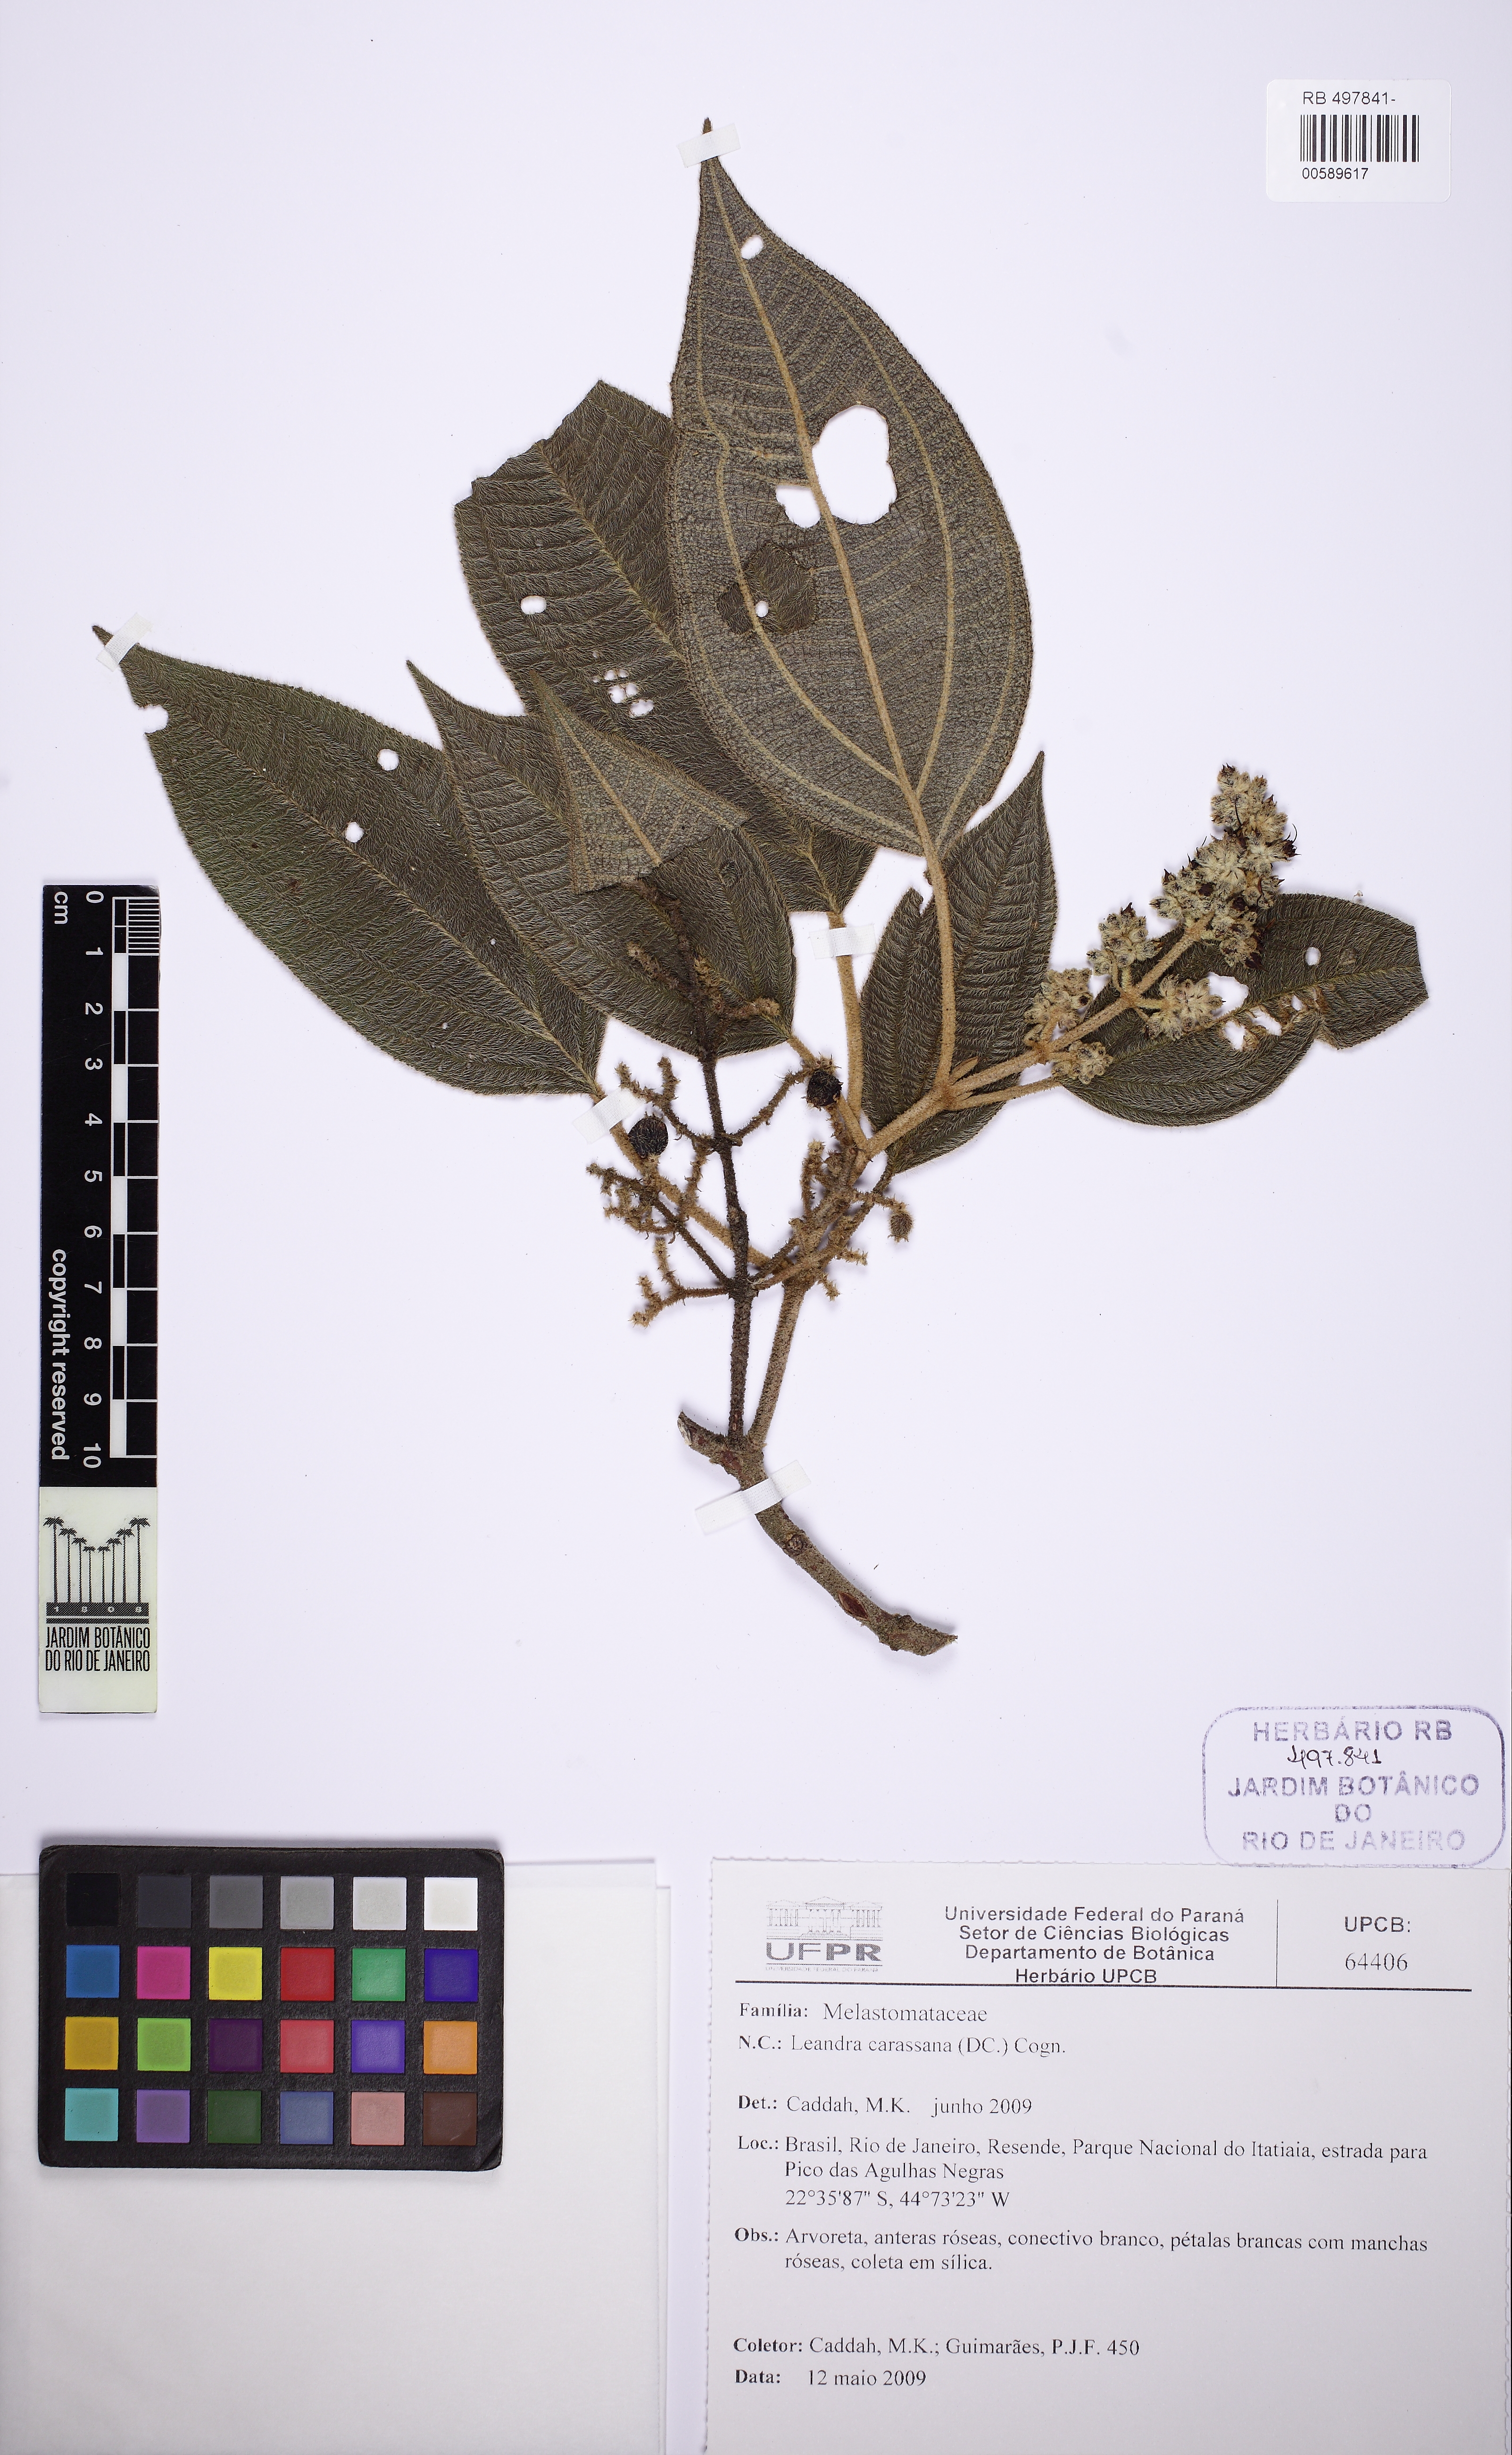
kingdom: Plantae
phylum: Tracheophyta
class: Magnoliopsida
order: Myrtales
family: Melastomataceae
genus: Miconia
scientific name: Miconia sublanata
